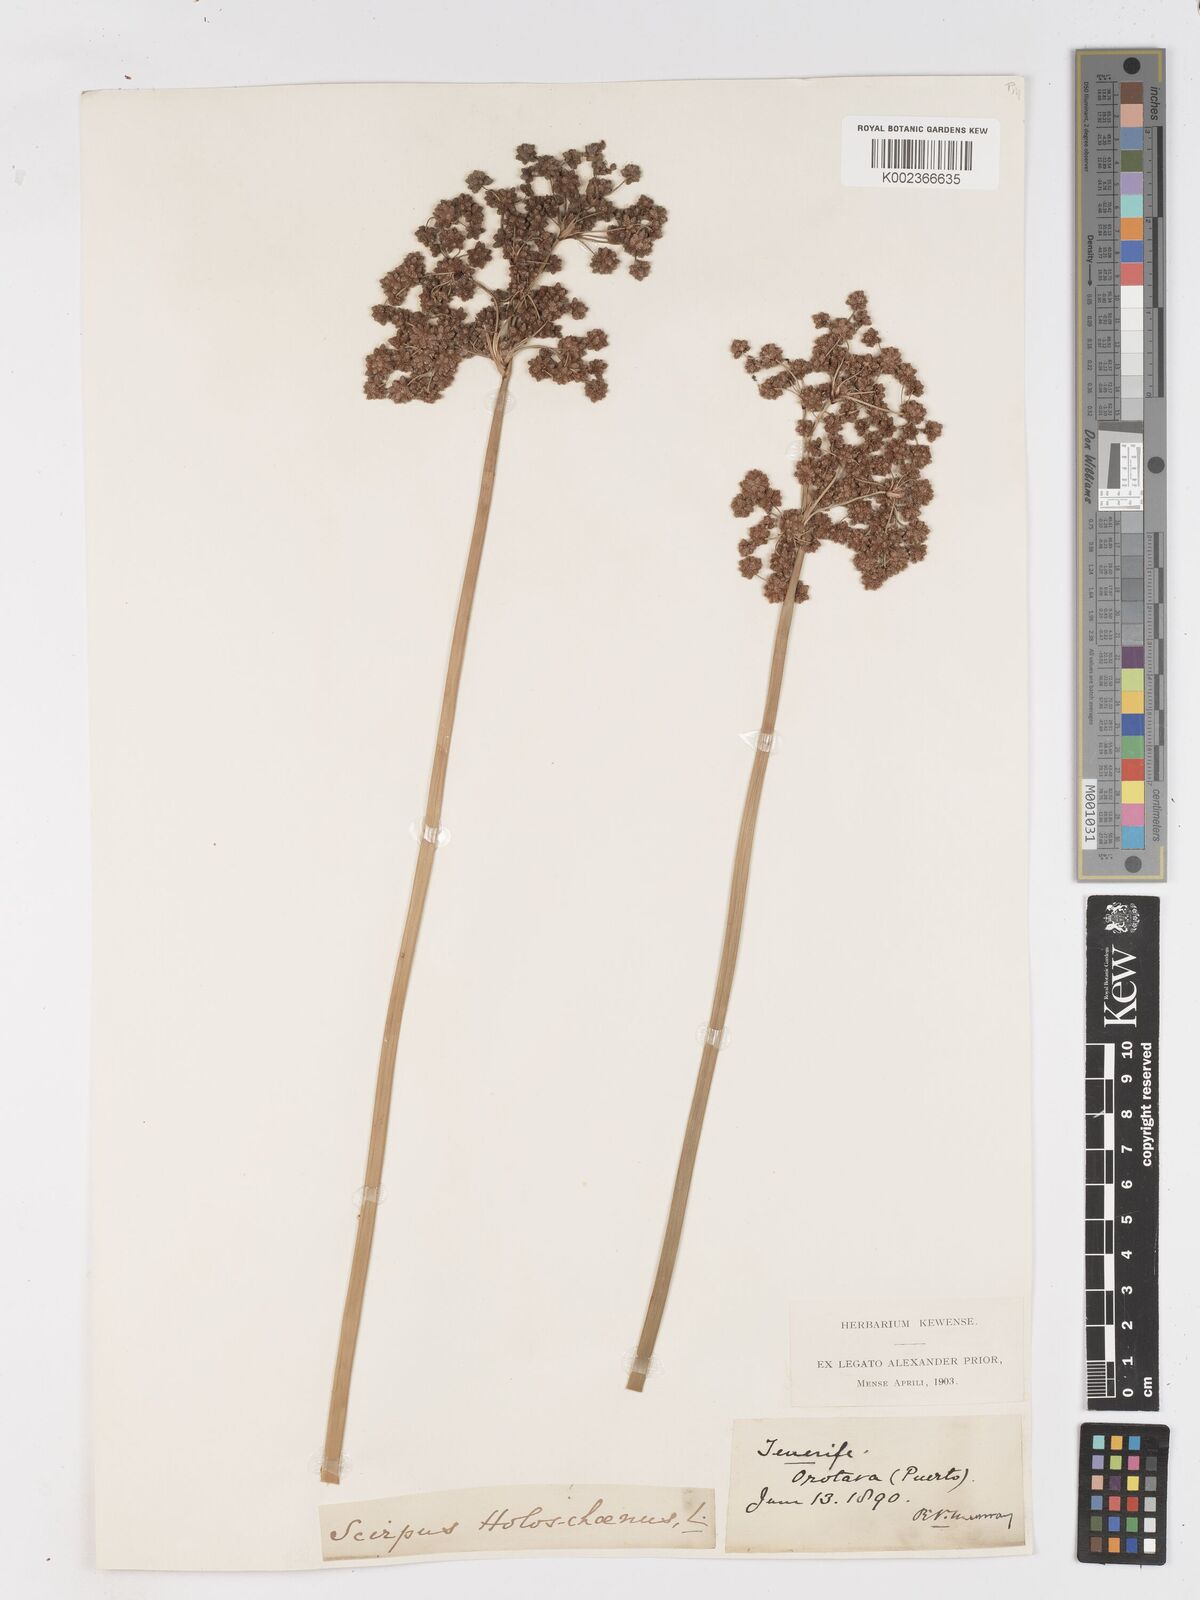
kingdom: Plantae
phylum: Tracheophyta
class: Liliopsida
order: Poales
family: Cyperaceae
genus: Scirpoides
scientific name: Scirpoides holoschoenus
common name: Round-headed club-rush
